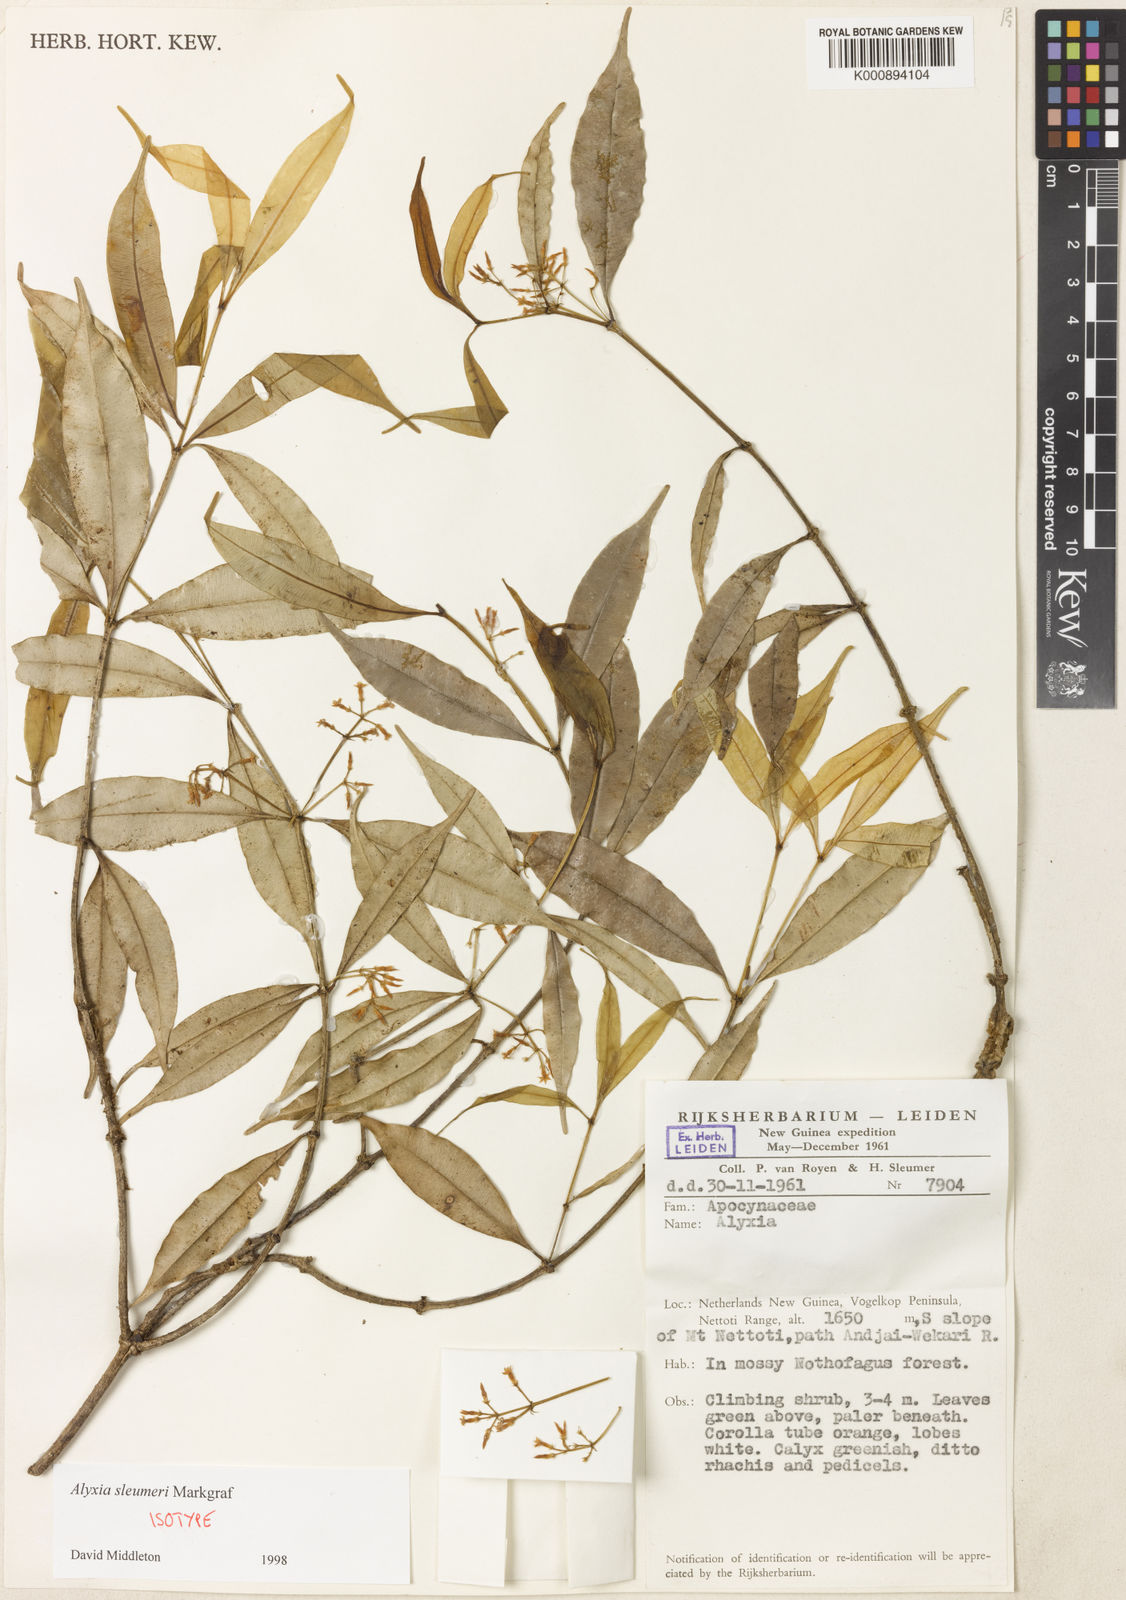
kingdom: Plantae
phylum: Tracheophyta
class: Magnoliopsida
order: Gentianales
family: Apocynaceae
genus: Alyxia
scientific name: Alyxia sleumeri
